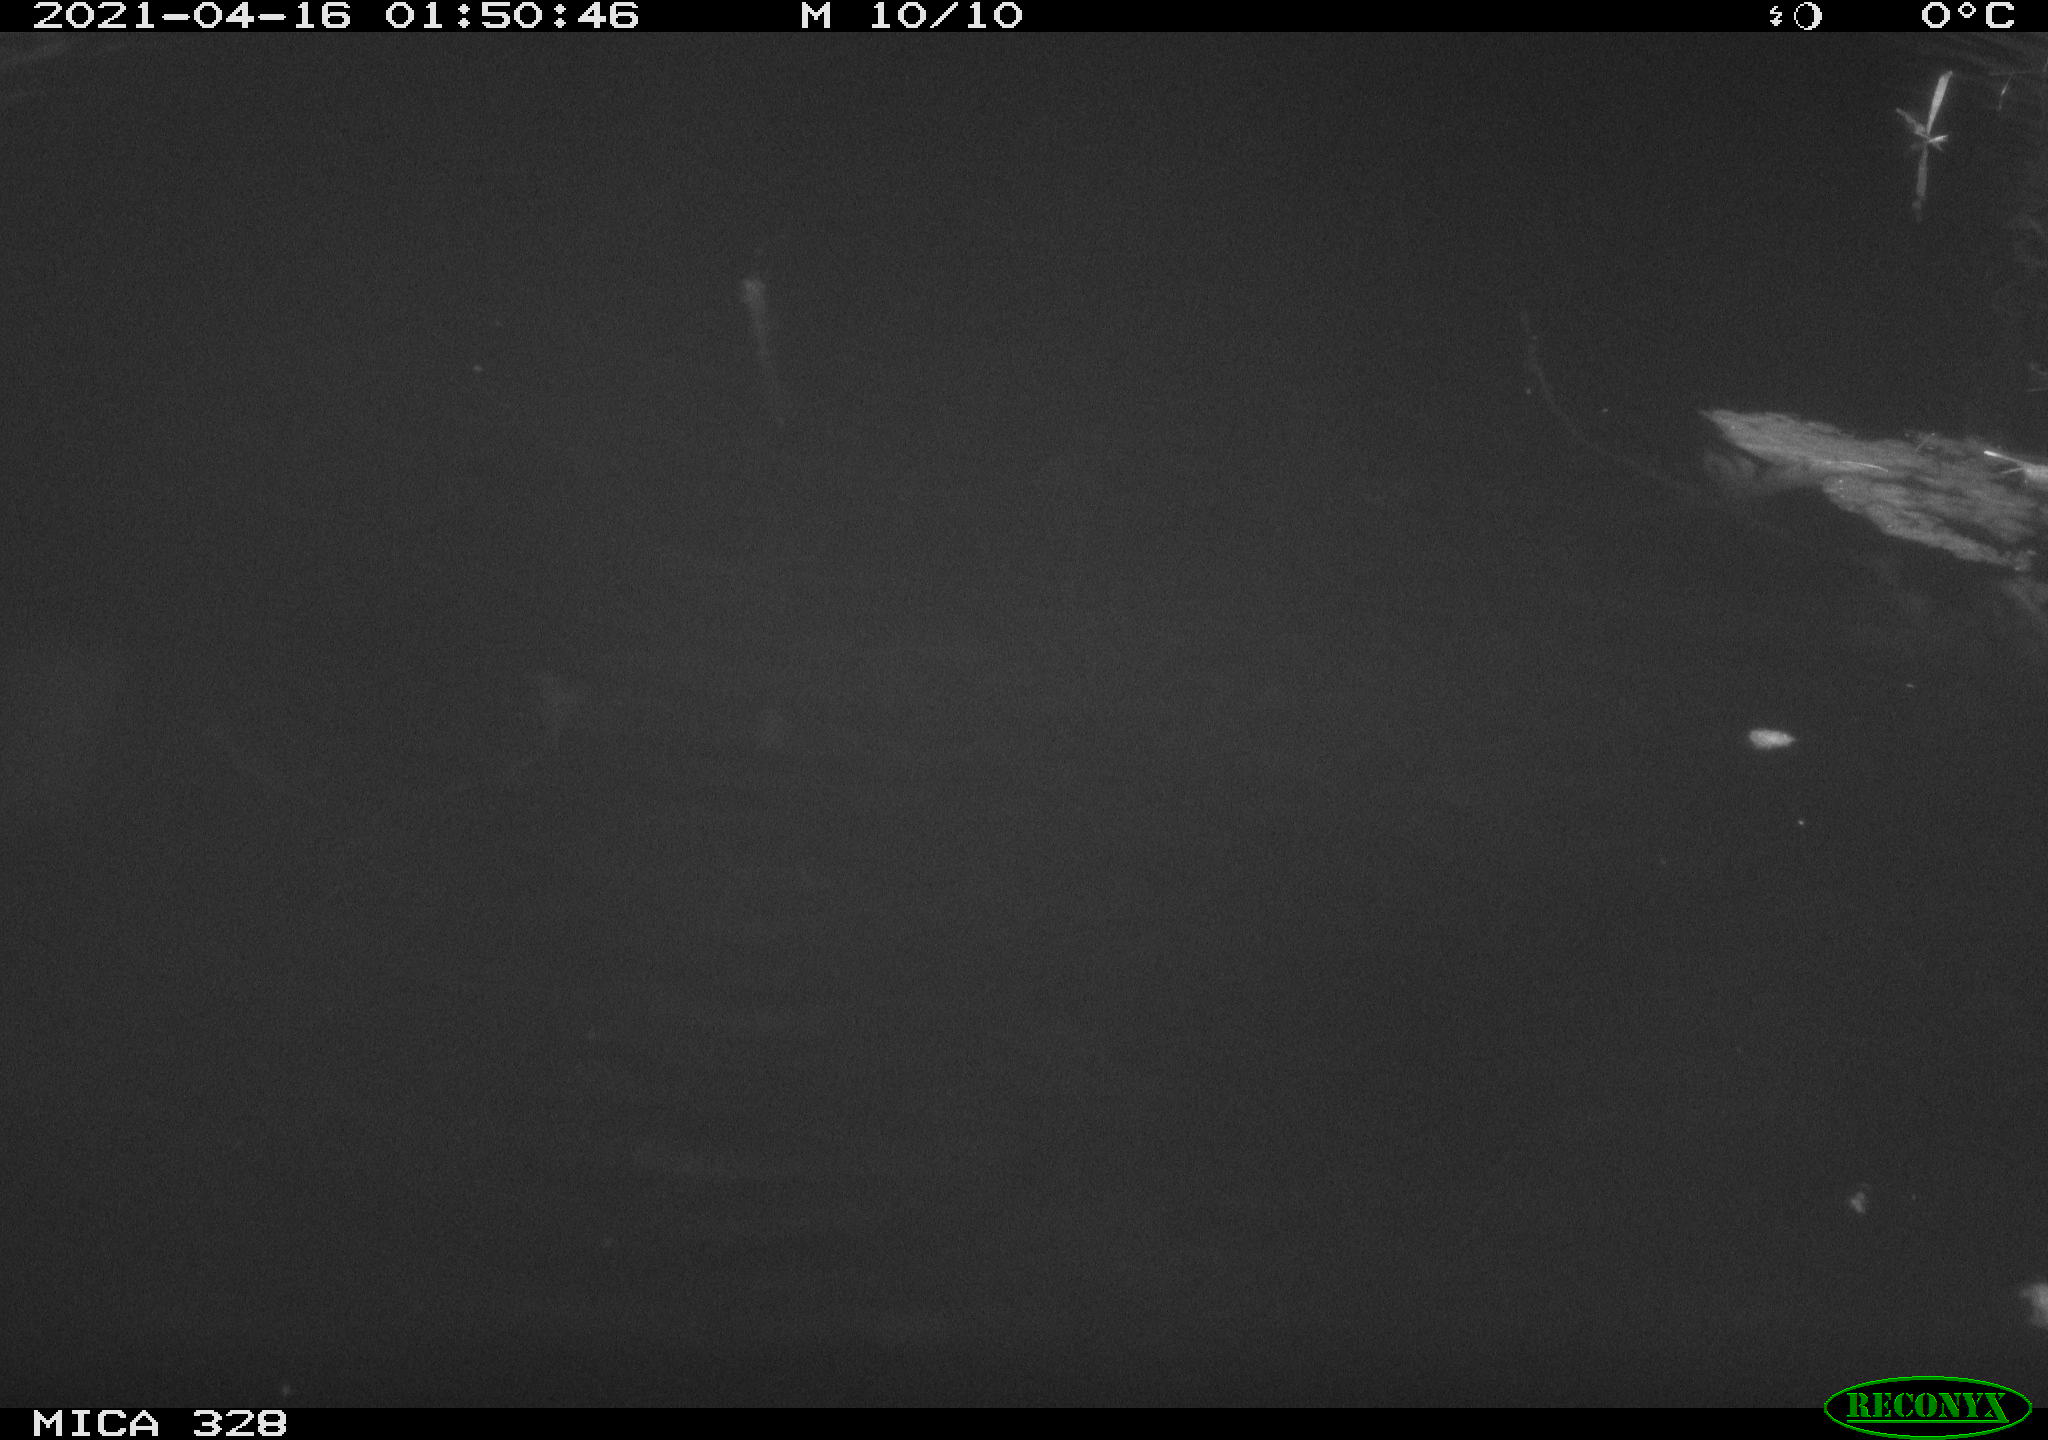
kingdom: Animalia
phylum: Chordata
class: Mammalia
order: Rodentia
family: Cricetidae
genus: Ondatra
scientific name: Ondatra zibethicus
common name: Muskrat
